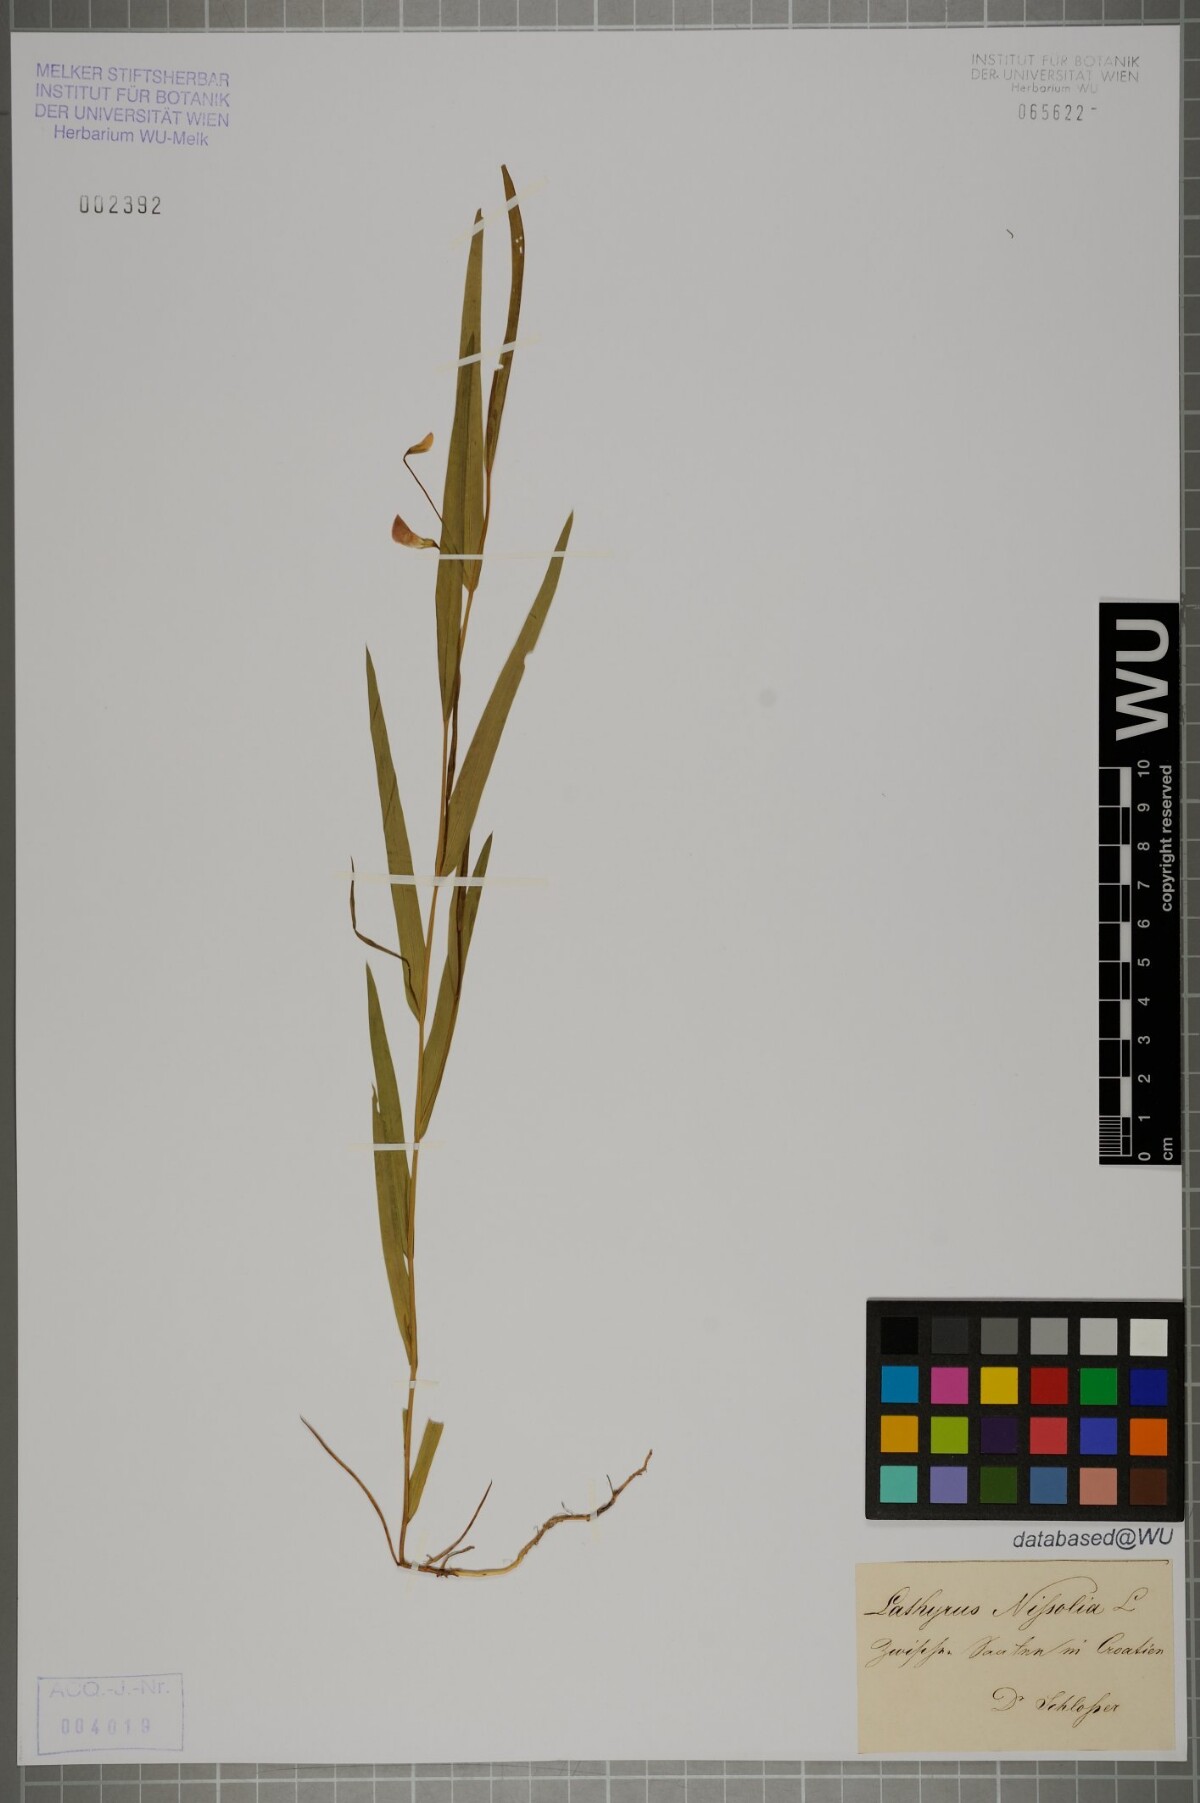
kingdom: Plantae
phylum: Tracheophyta
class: Magnoliopsida
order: Fabales
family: Fabaceae
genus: Lathyrus
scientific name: Lathyrus nissolia
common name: Grass vetchling
